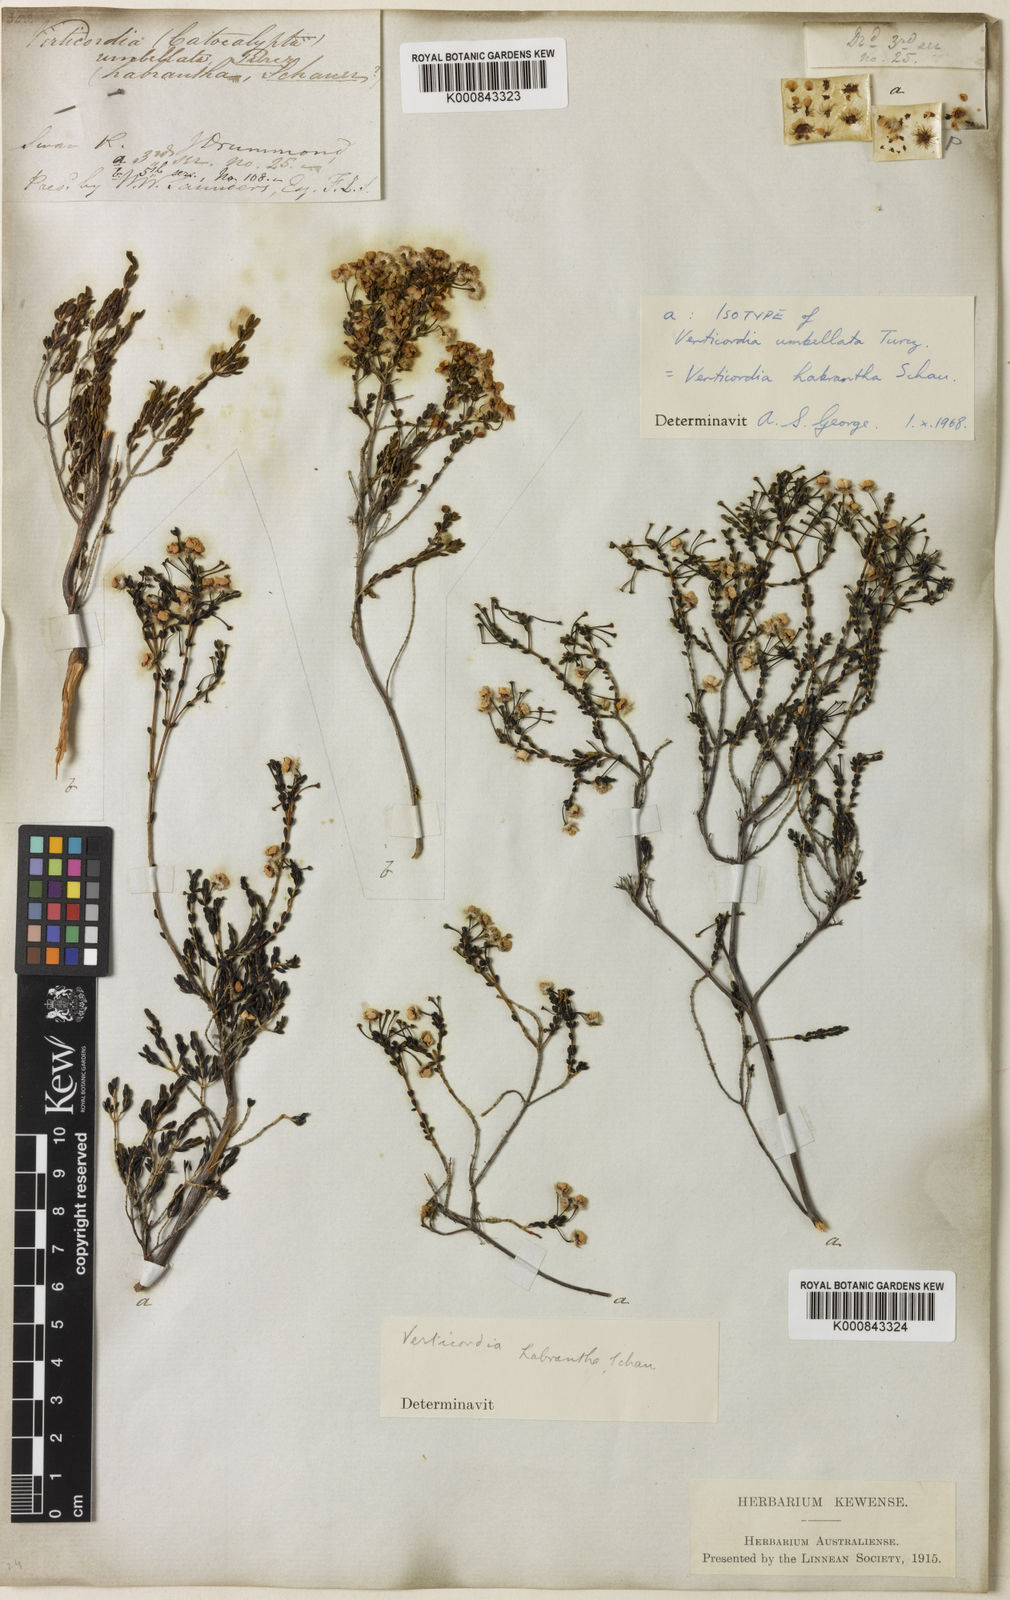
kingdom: Plantae
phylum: Tracheophyta
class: Magnoliopsida
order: Myrtales
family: Myrtaceae
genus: Verticordia
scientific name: Verticordia habrantha
